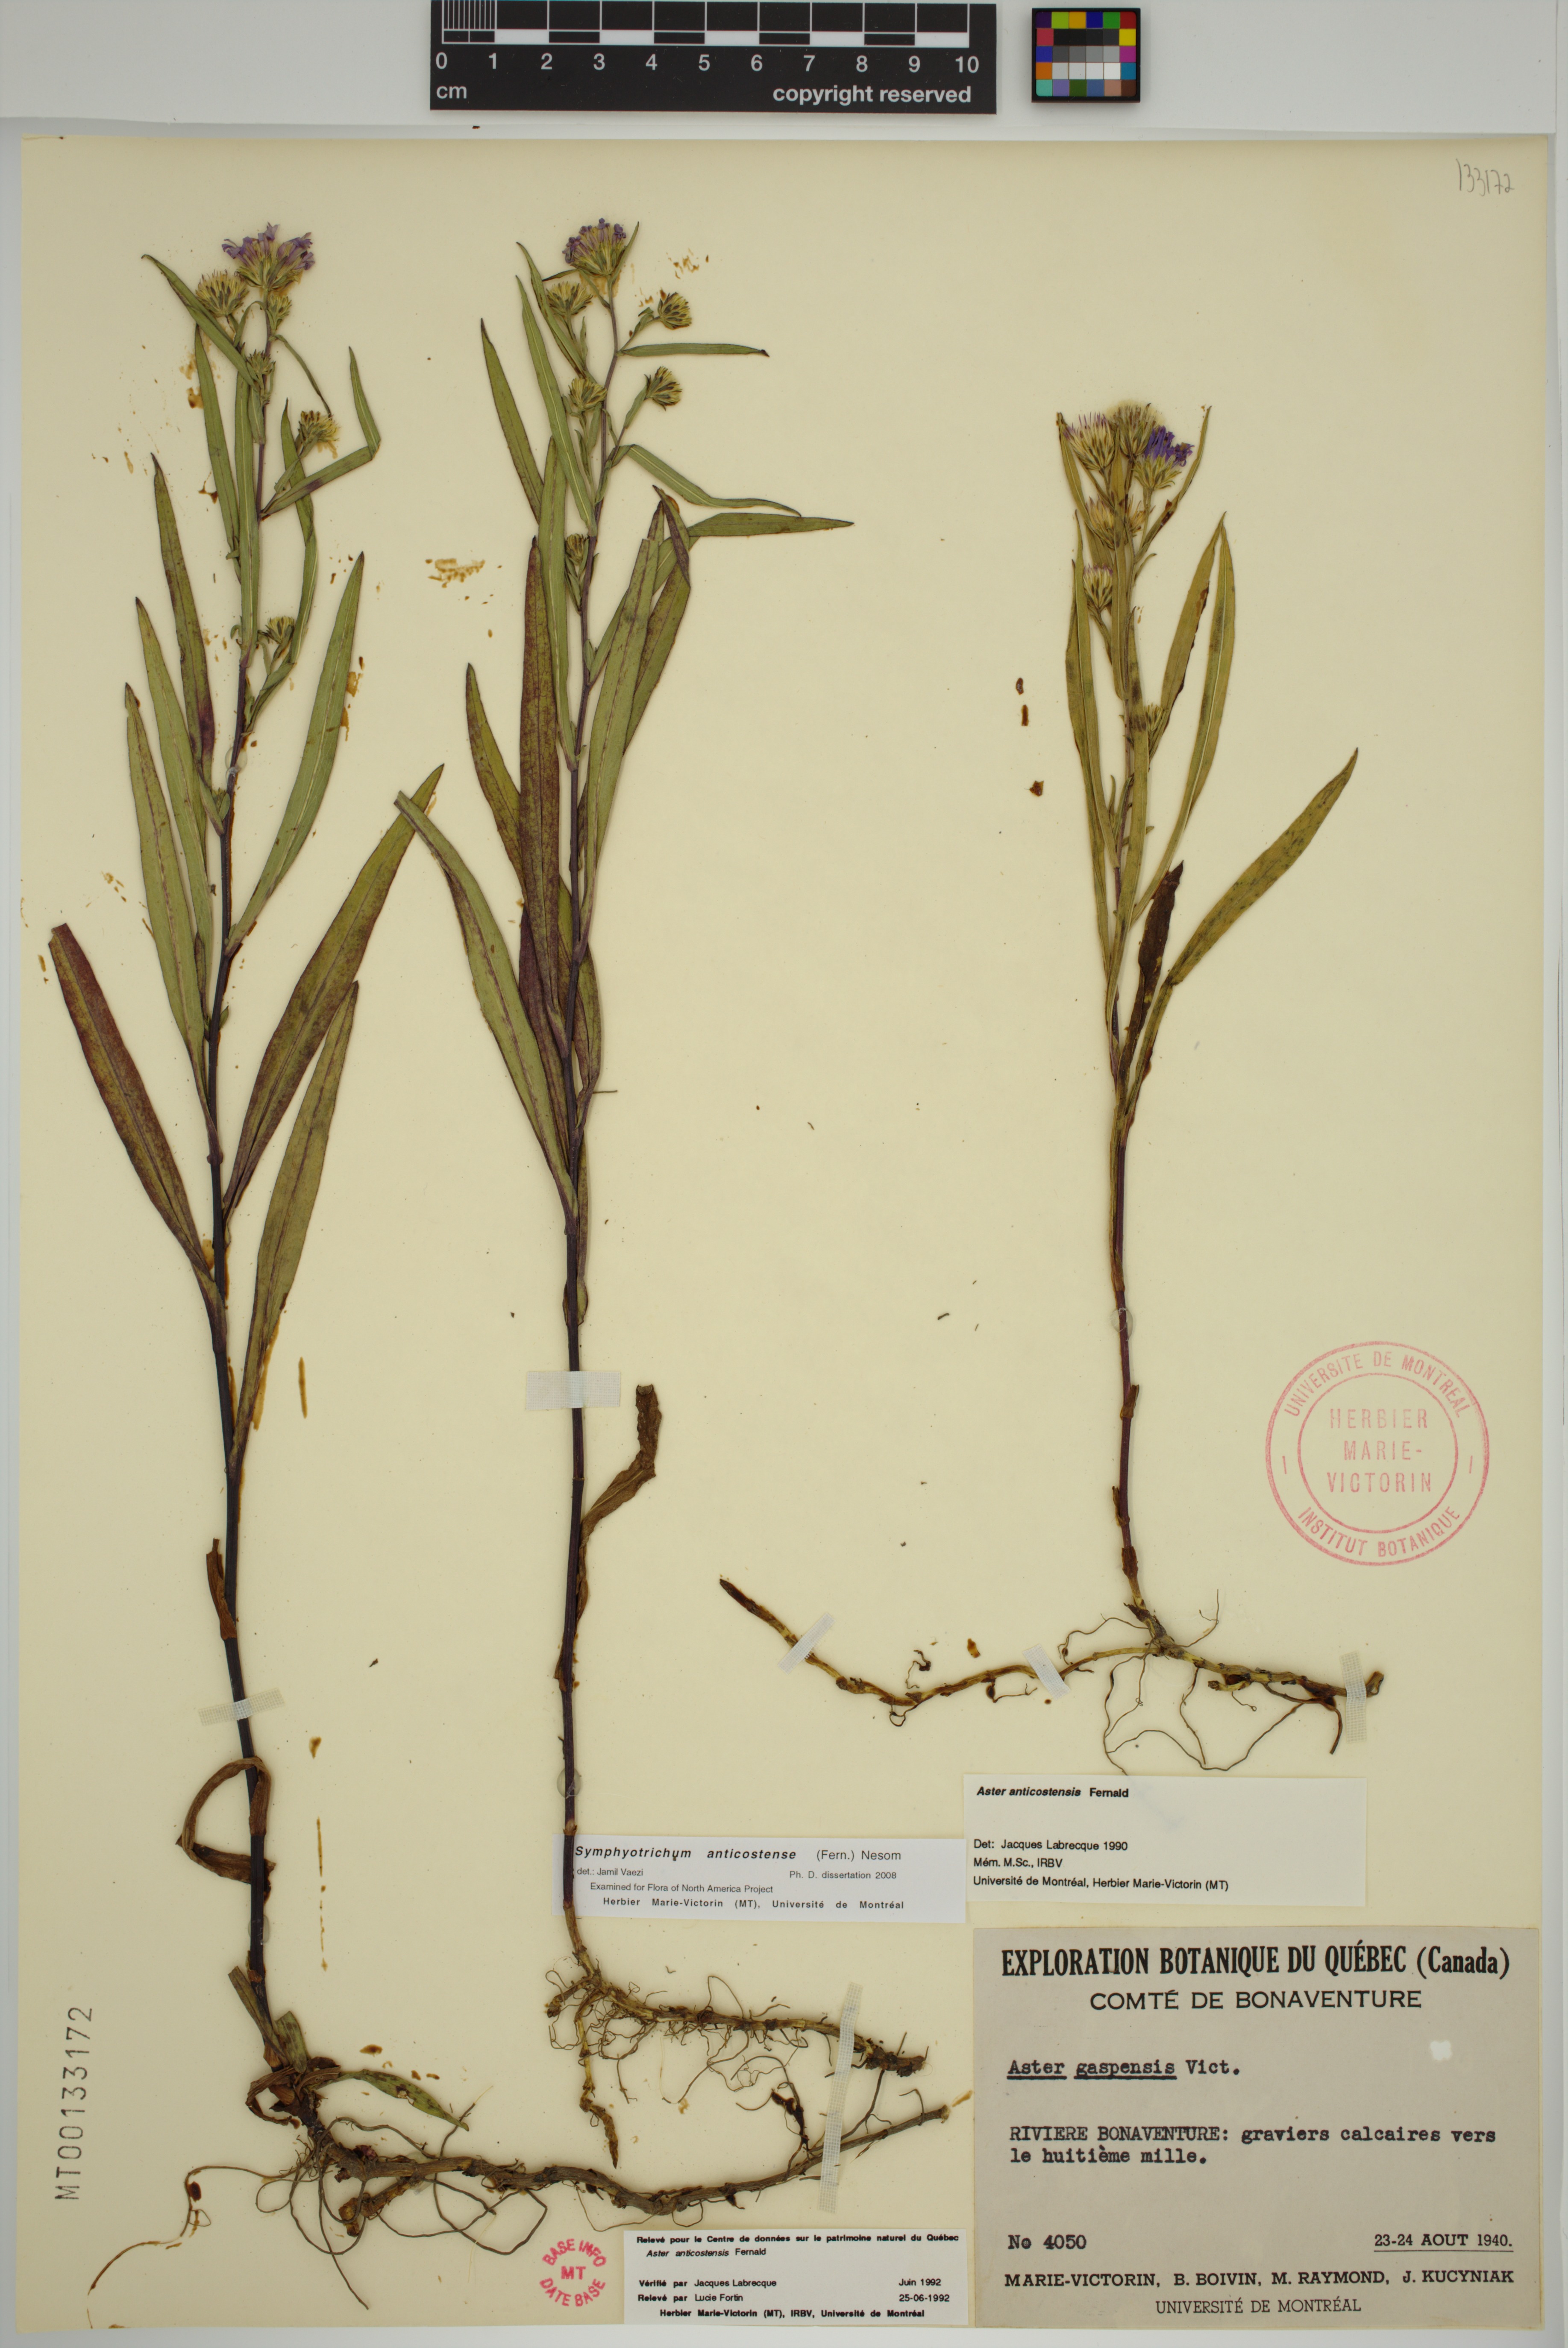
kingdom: Plantae
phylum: Tracheophyta
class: Magnoliopsida
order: Asterales
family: Asteraceae
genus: Symphyotrichum
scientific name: Symphyotrichum anticostense
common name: Anticosti island aster
